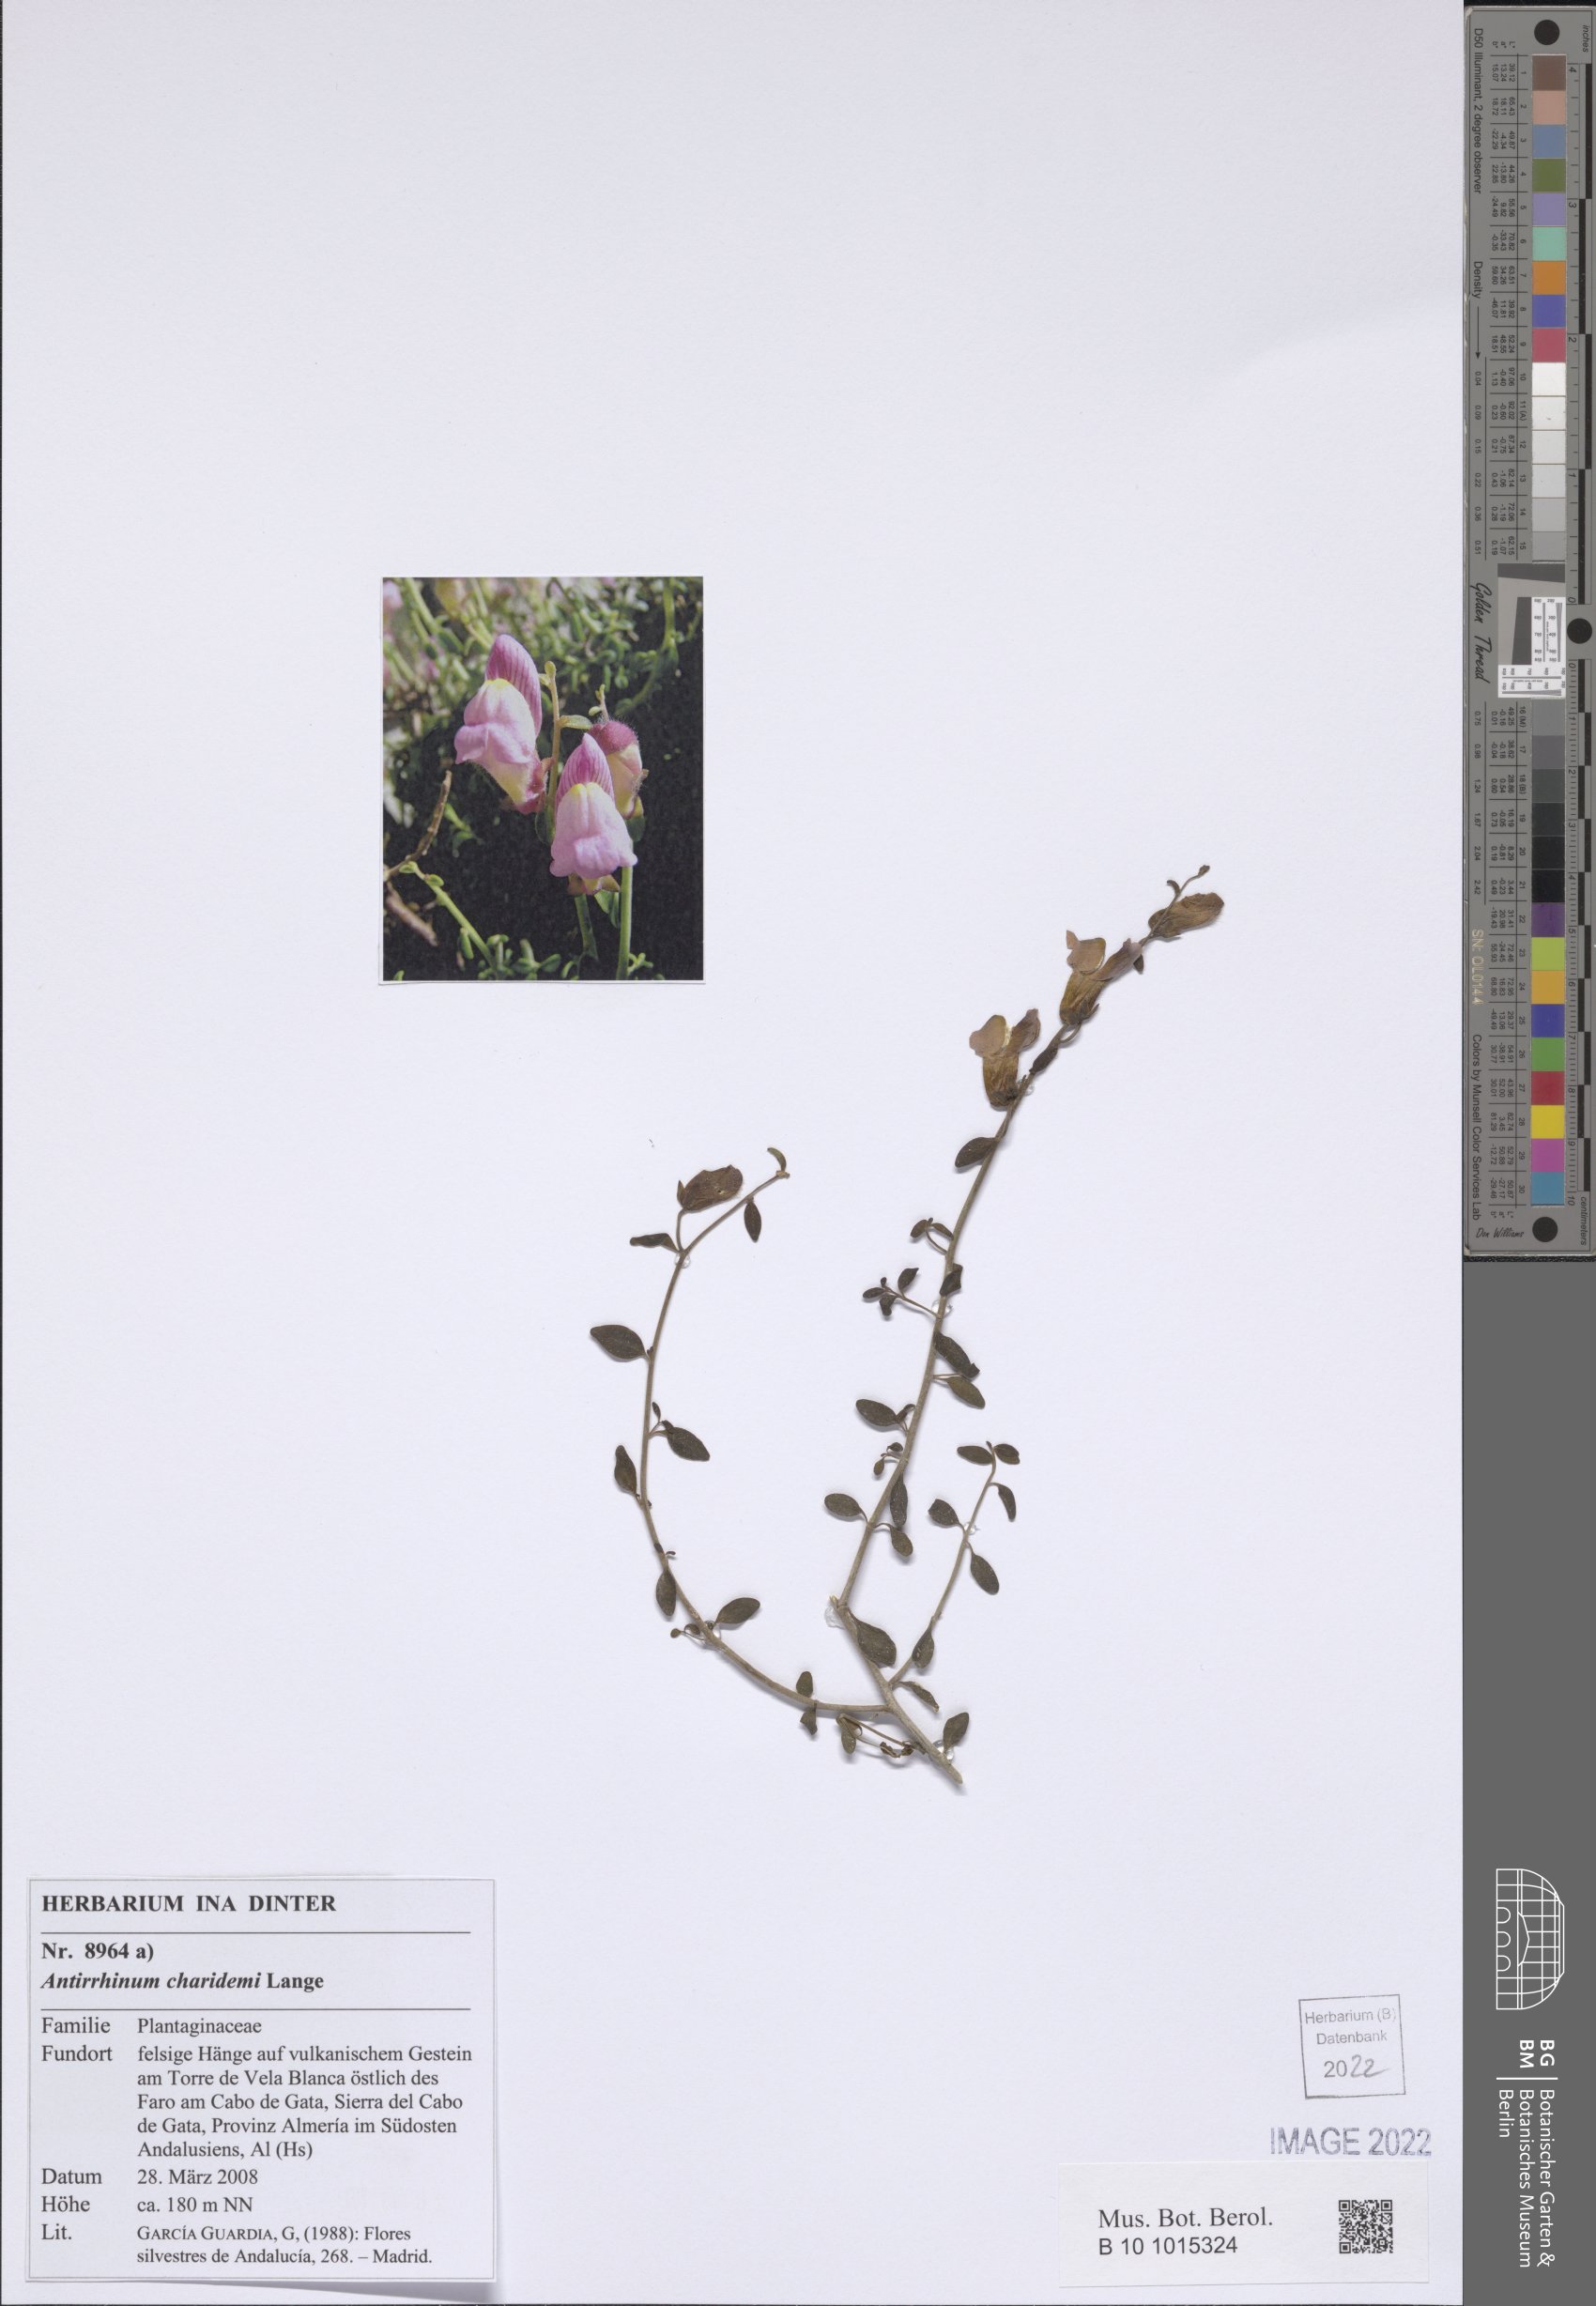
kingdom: Plantae
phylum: Tracheophyta
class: Magnoliopsida
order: Lamiales
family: Plantaginaceae
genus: Antirrhinum
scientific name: Antirrhinum charidemi
